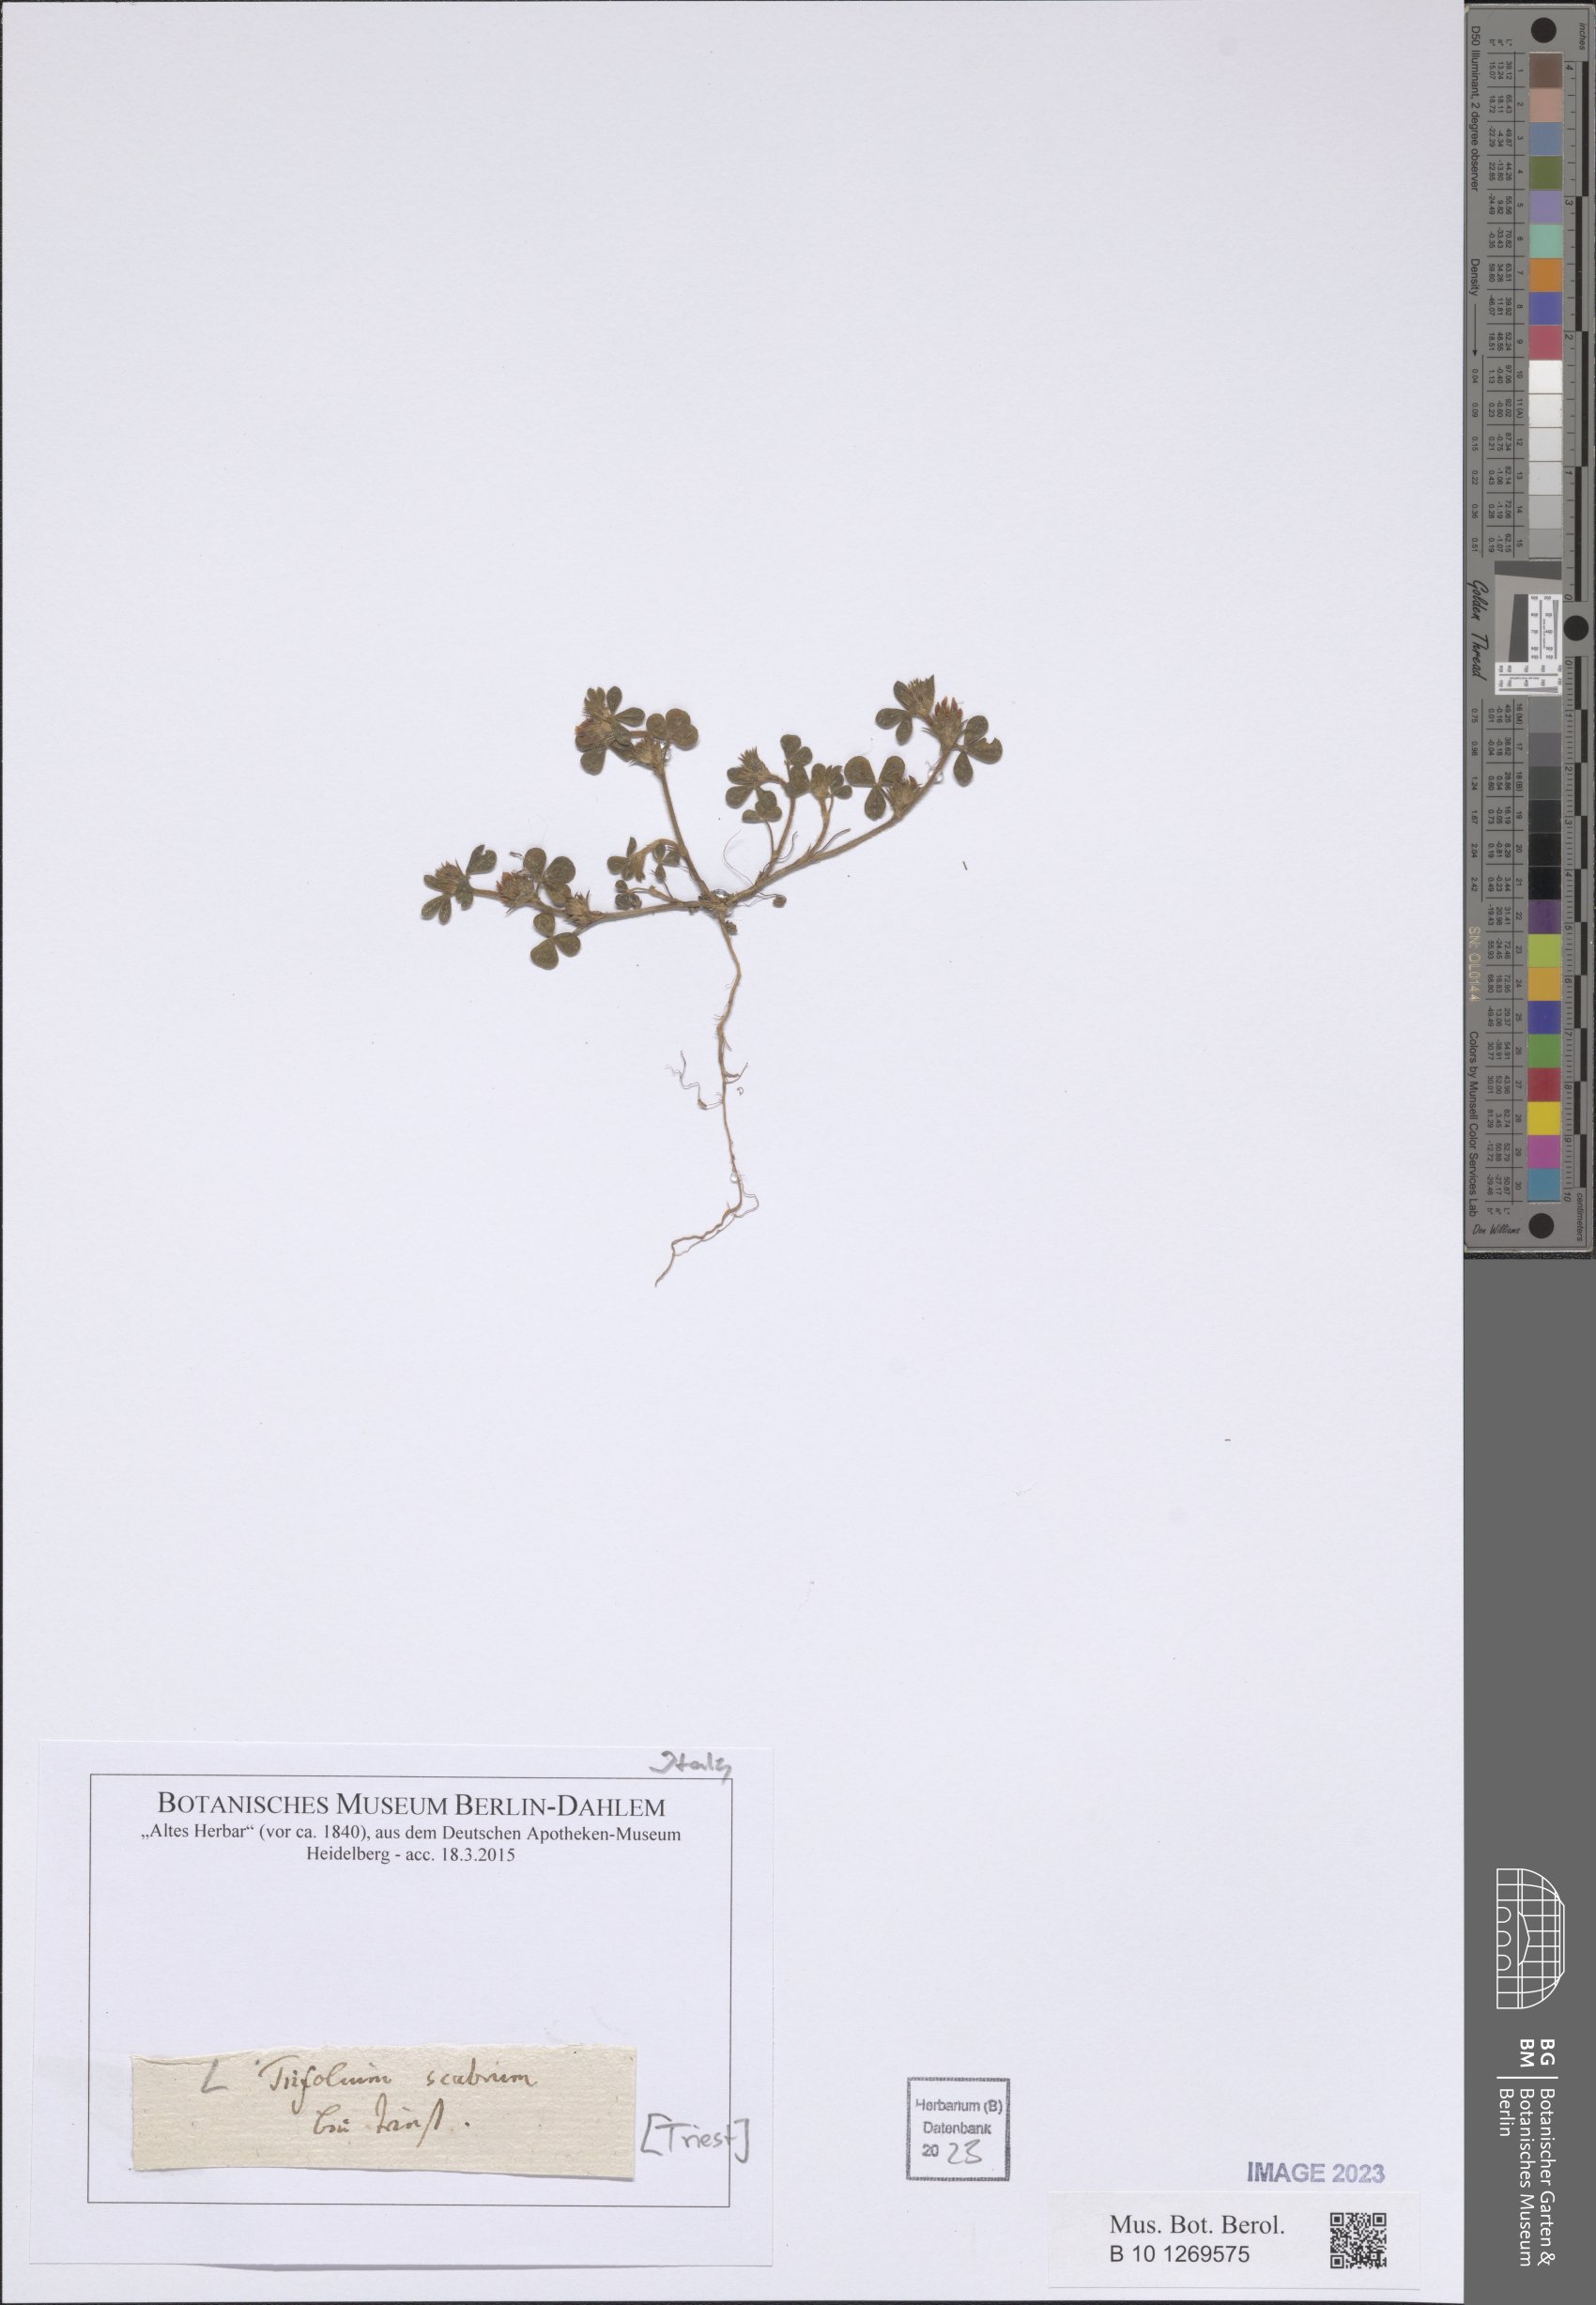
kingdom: Plantae
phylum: Tracheophyta
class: Magnoliopsida
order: Fabales
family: Fabaceae
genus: Trifolium
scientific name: Trifolium scabrum
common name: Rough clover
